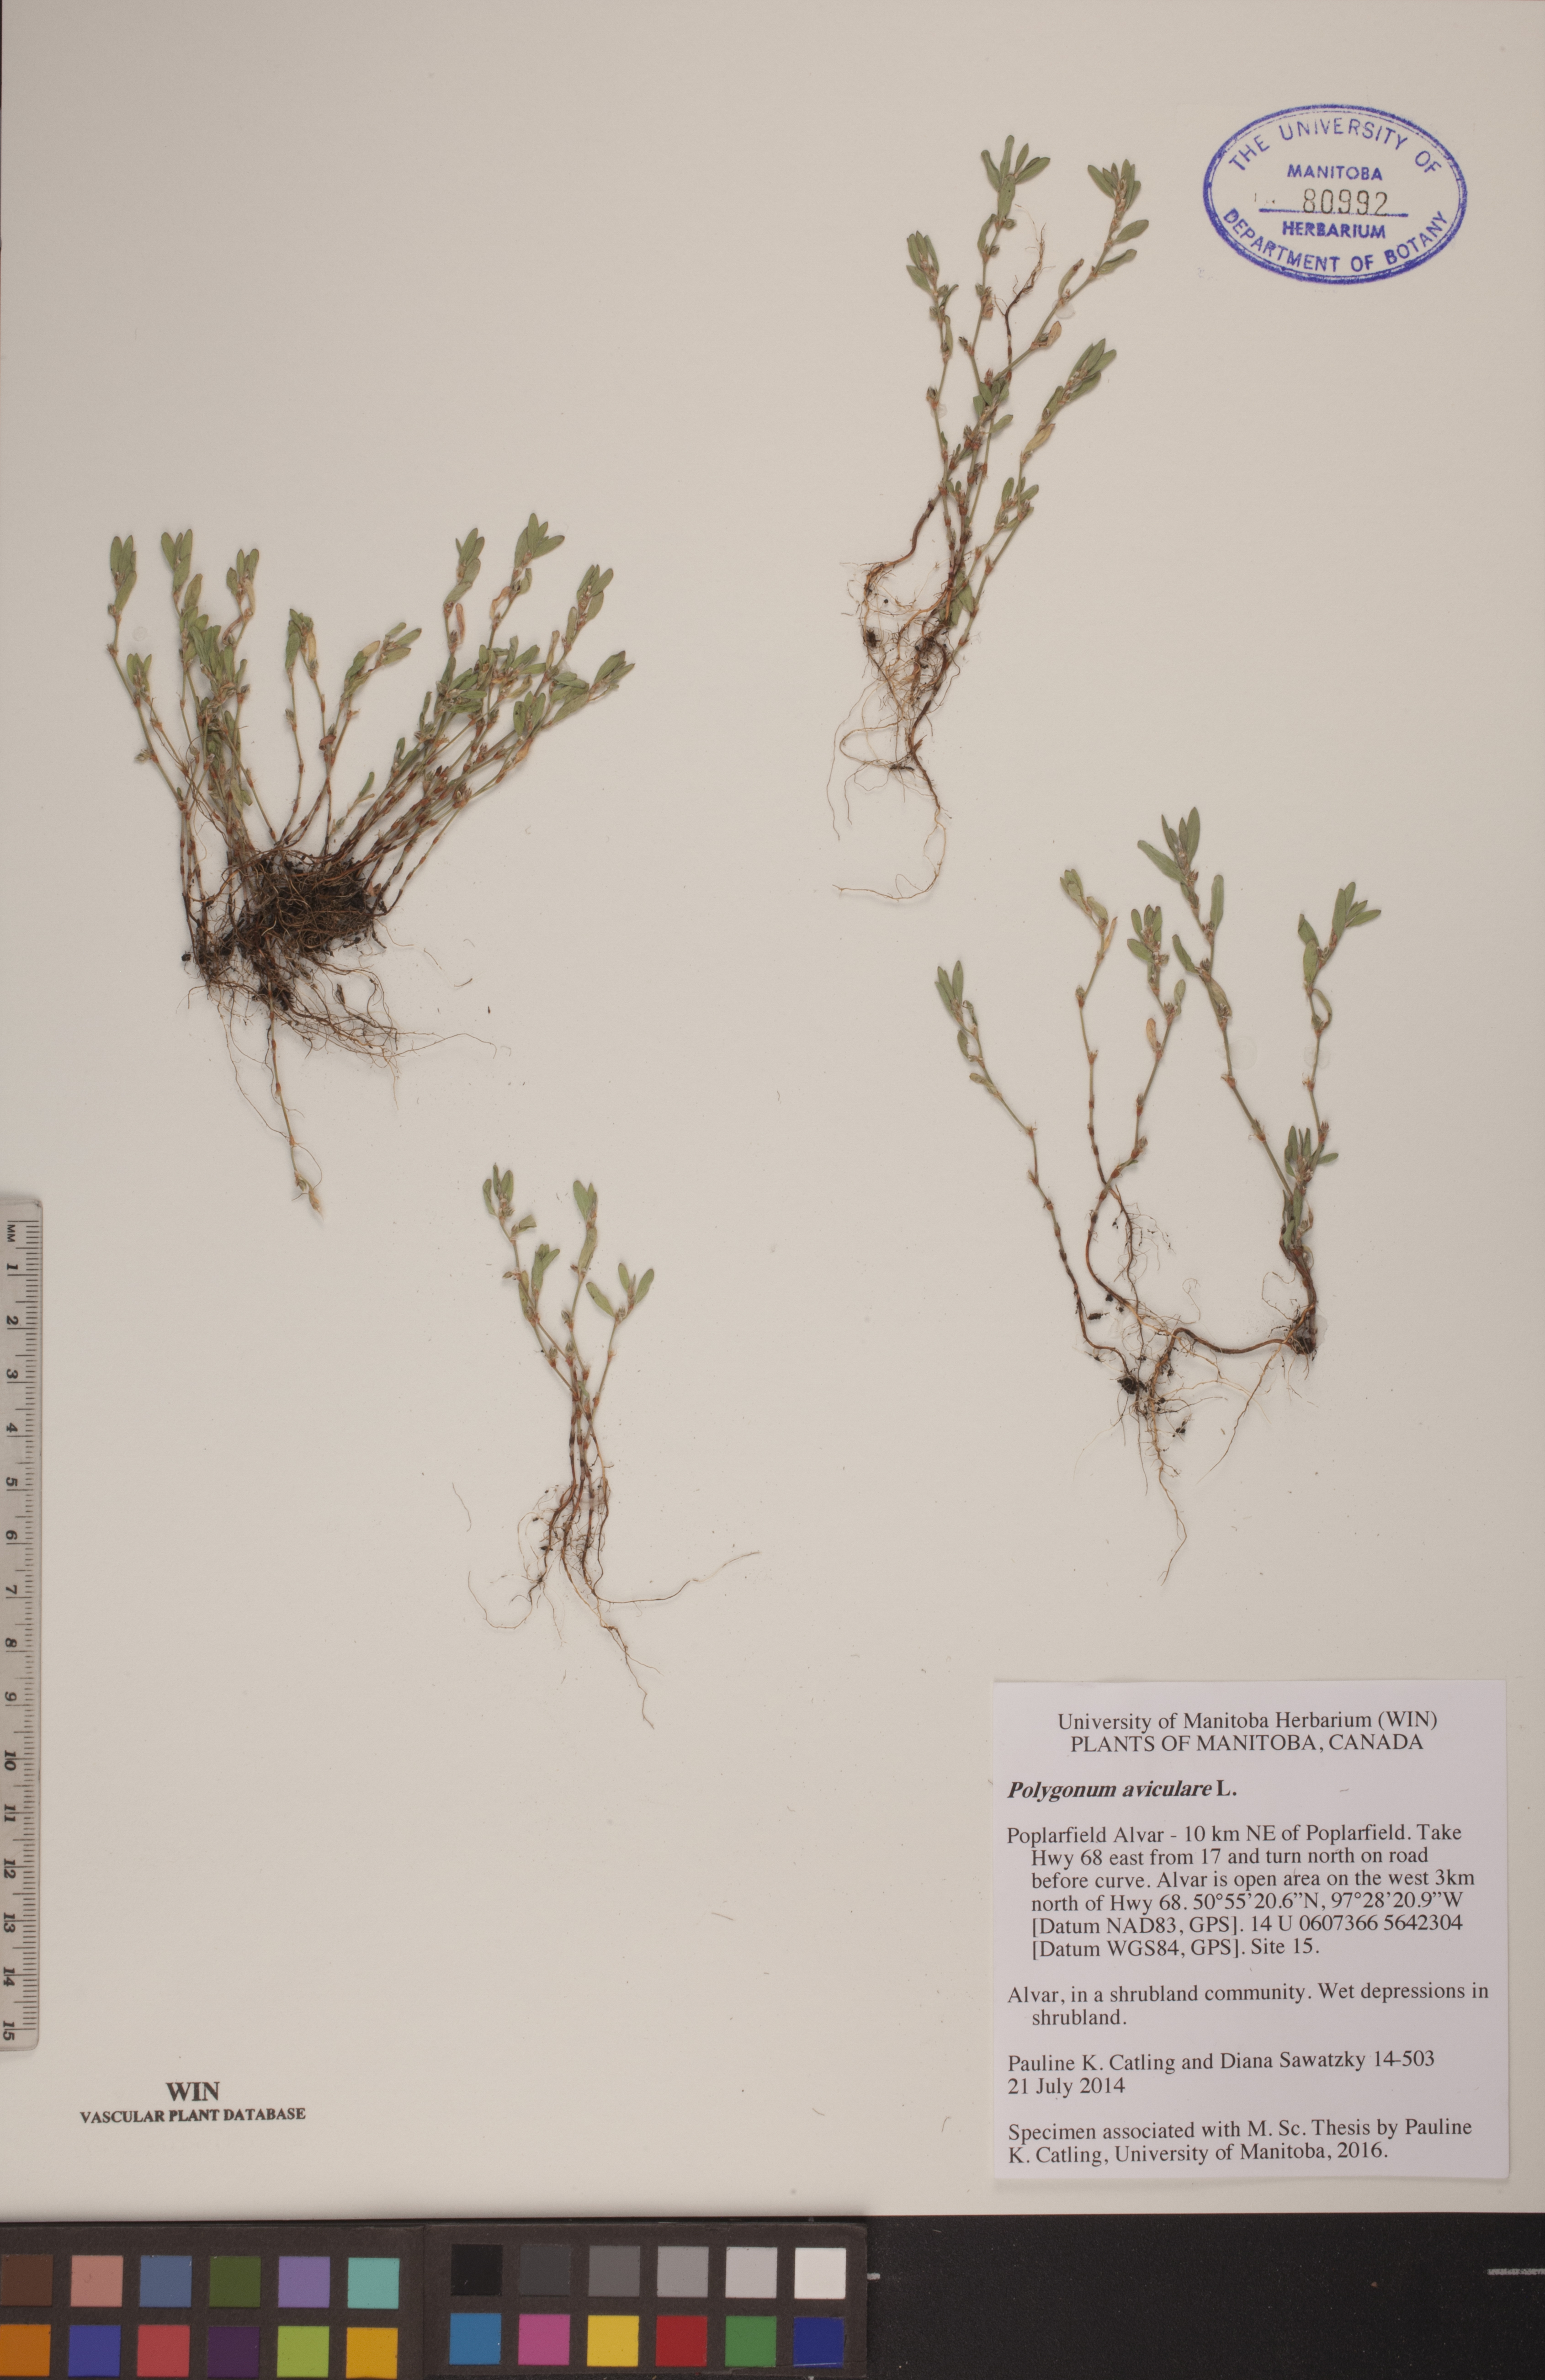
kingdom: Plantae
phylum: Tracheophyta
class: Magnoliopsida
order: Caryophyllales
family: Polygonaceae
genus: Polygonum
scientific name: Polygonum aviculare
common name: Prostrate knotweed
